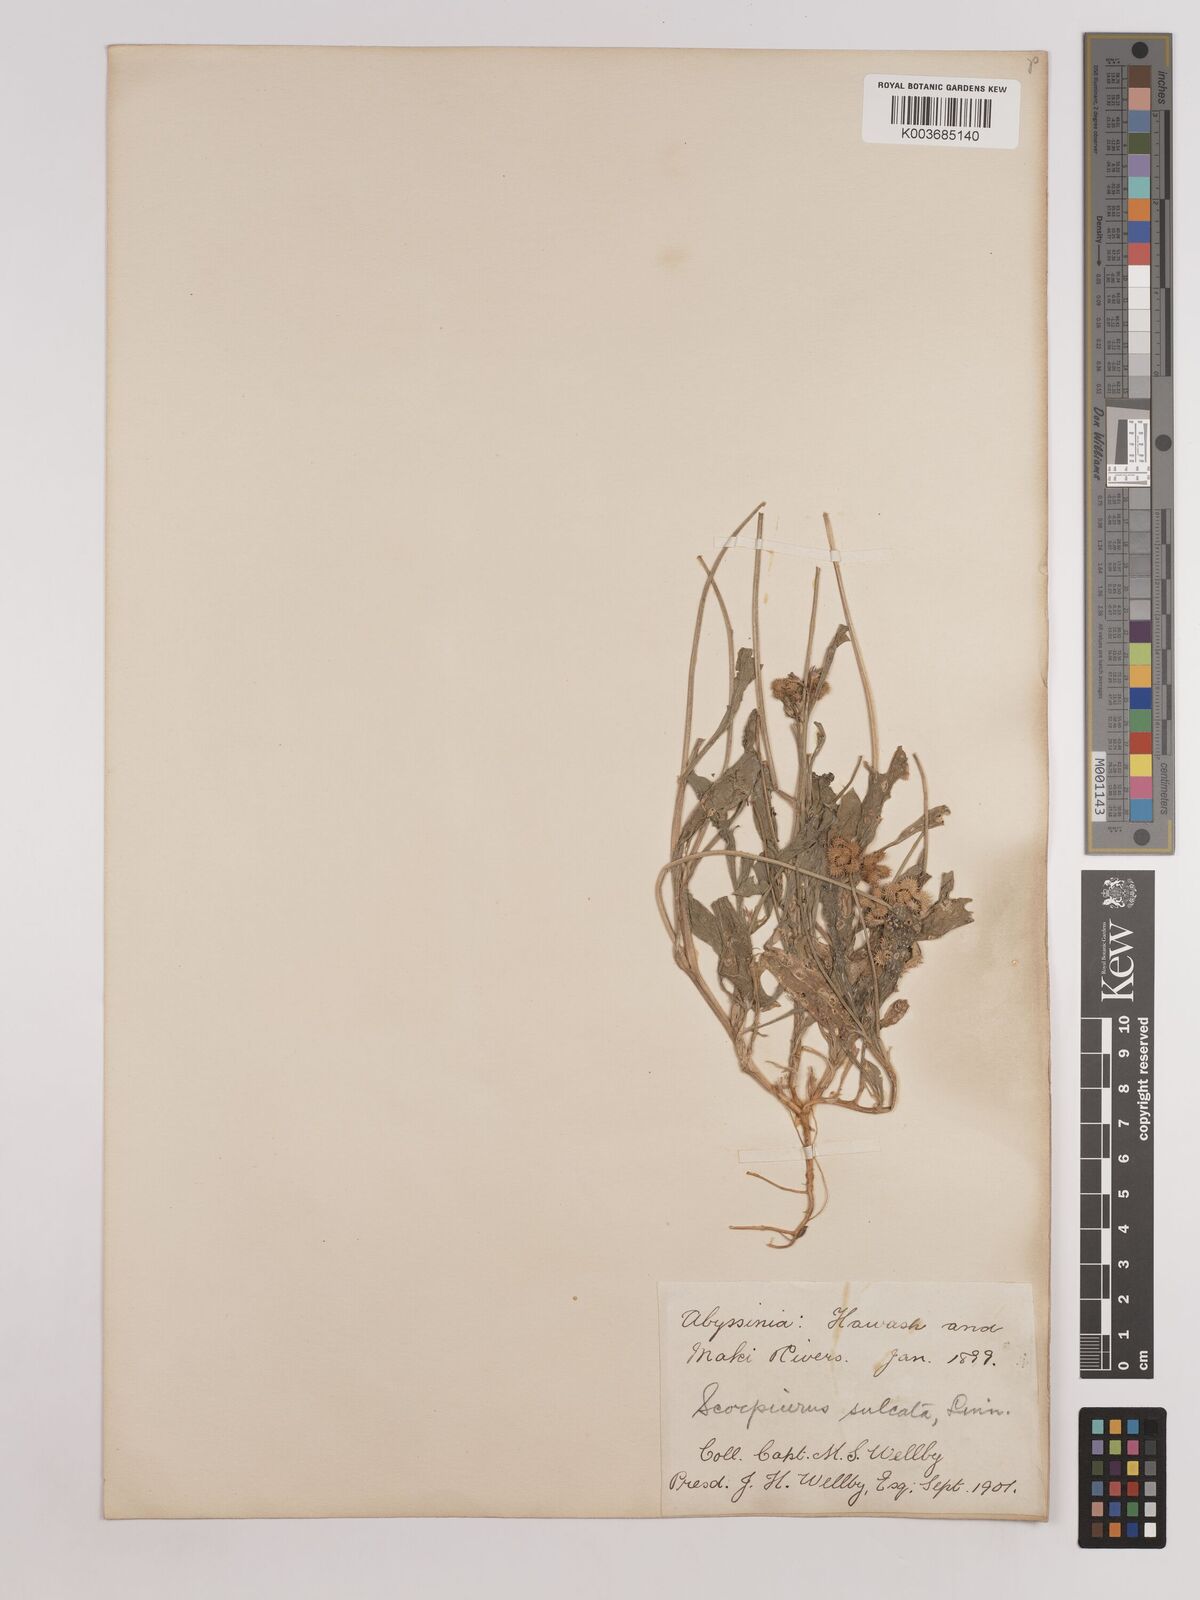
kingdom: Plantae
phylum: Tracheophyta
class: Magnoliopsida
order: Fabales
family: Fabaceae
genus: Scorpiurus
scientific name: Scorpiurus muricatus
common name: Caterpillar-plant
